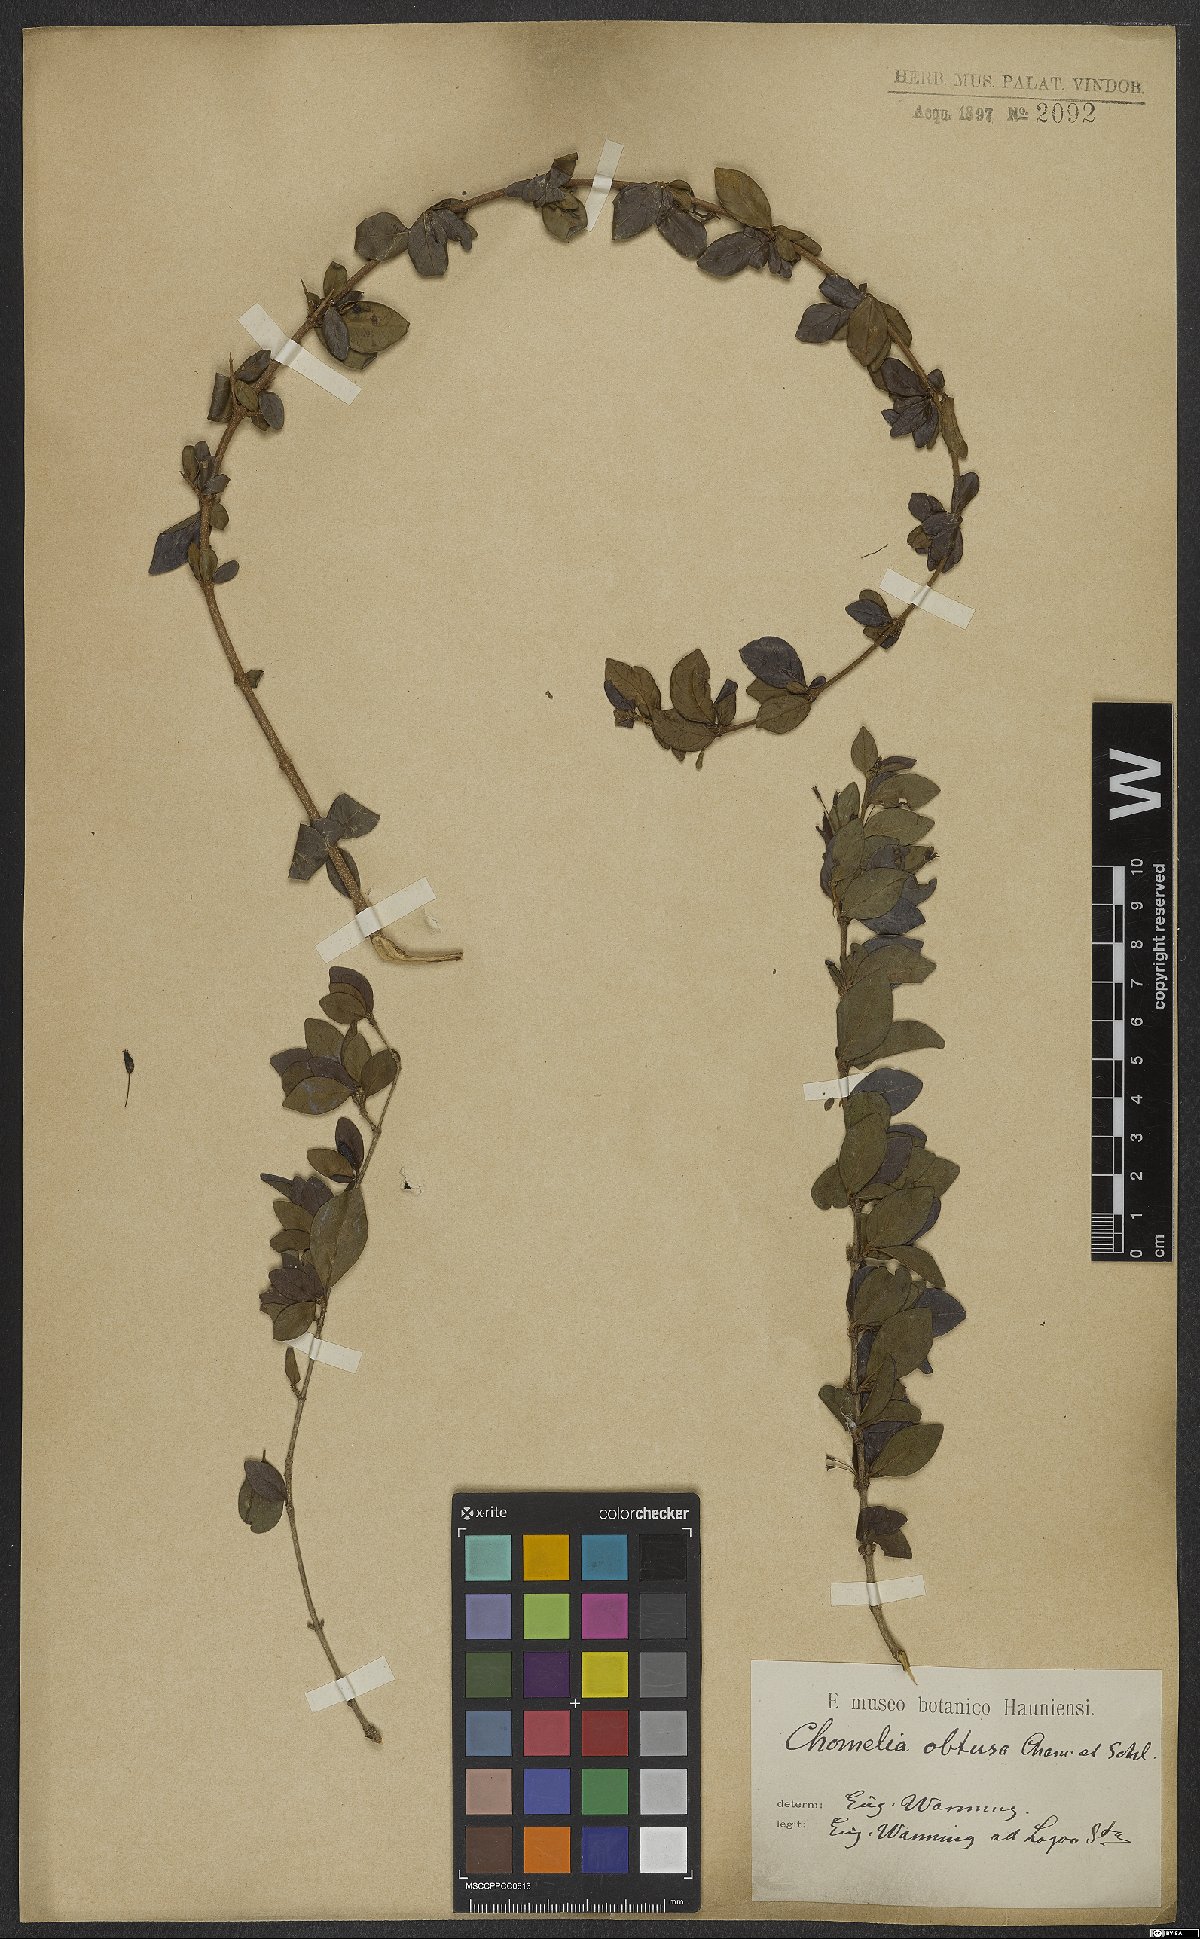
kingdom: Plantae
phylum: Tracheophyta
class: Magnoliopsida
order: Gentianales
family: Rubiaceae
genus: Chomelia
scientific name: Chomelia obtusa
